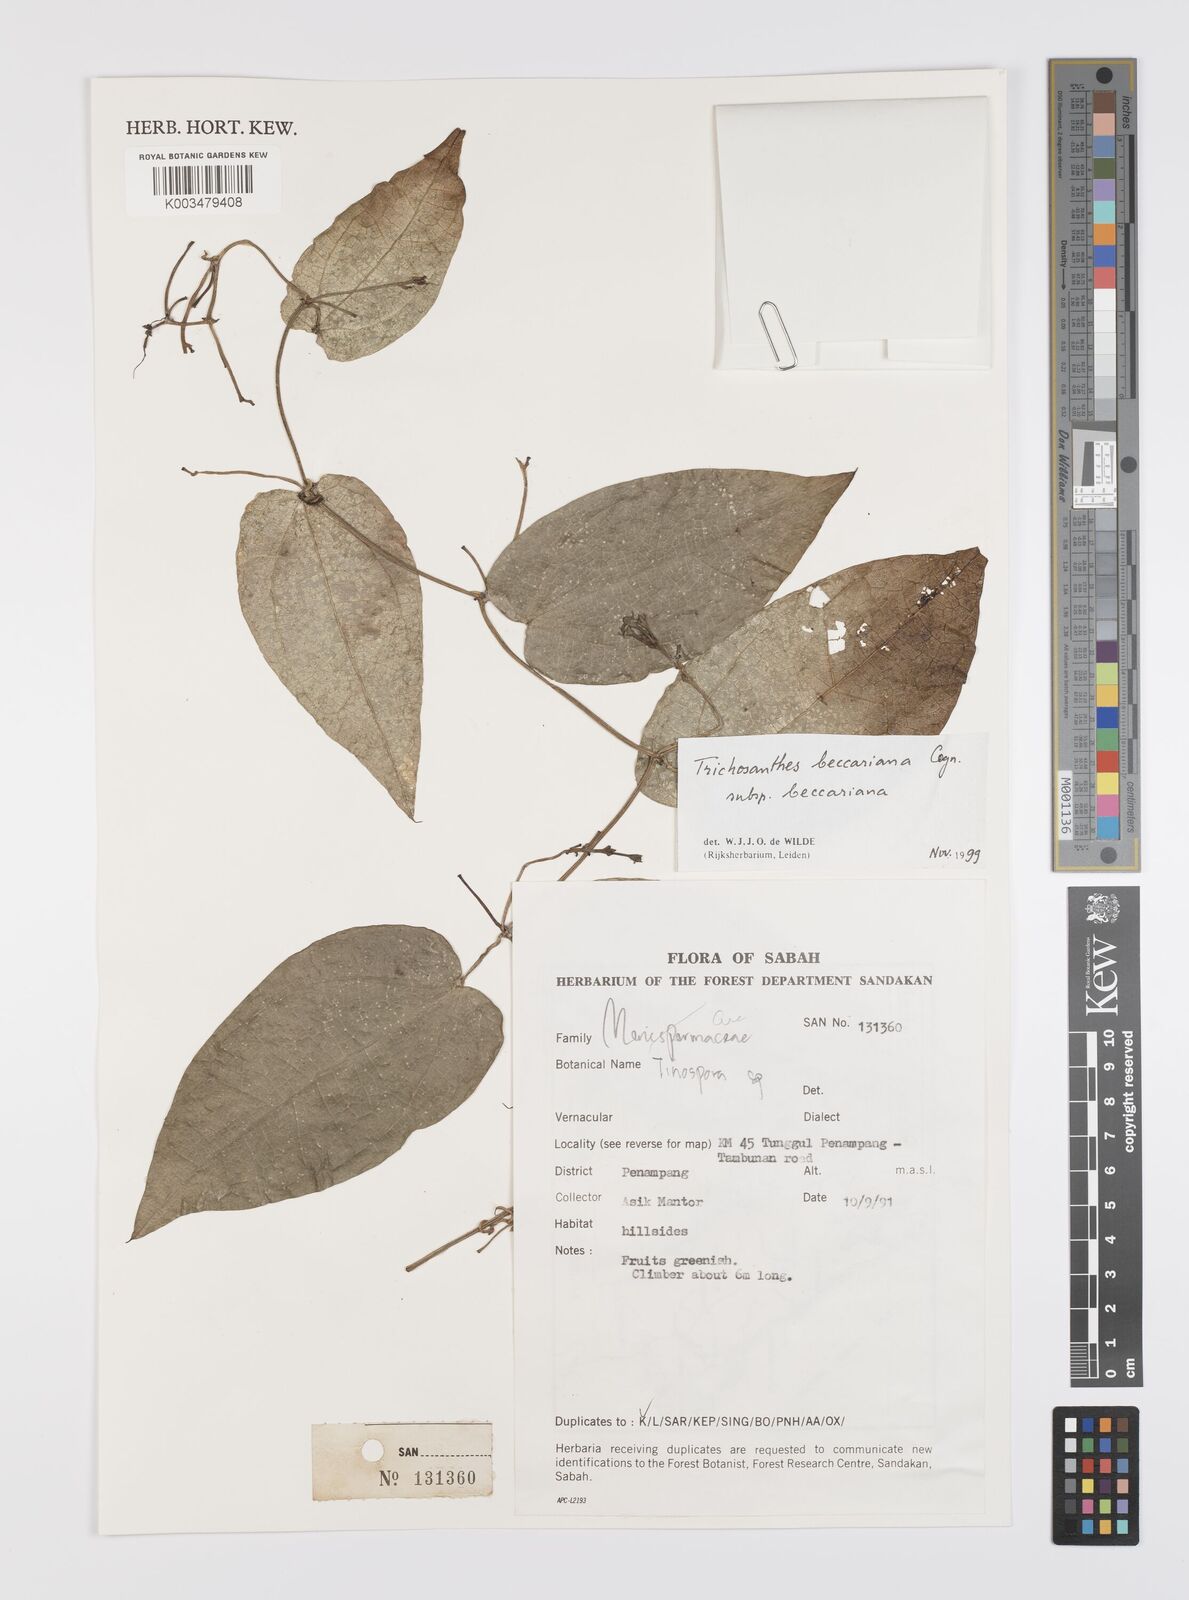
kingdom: Plantae
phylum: Tracheophyta
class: Magnoliopsida
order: Cucurbitales
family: Cucurbitaceae
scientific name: Cucurbitaceae
